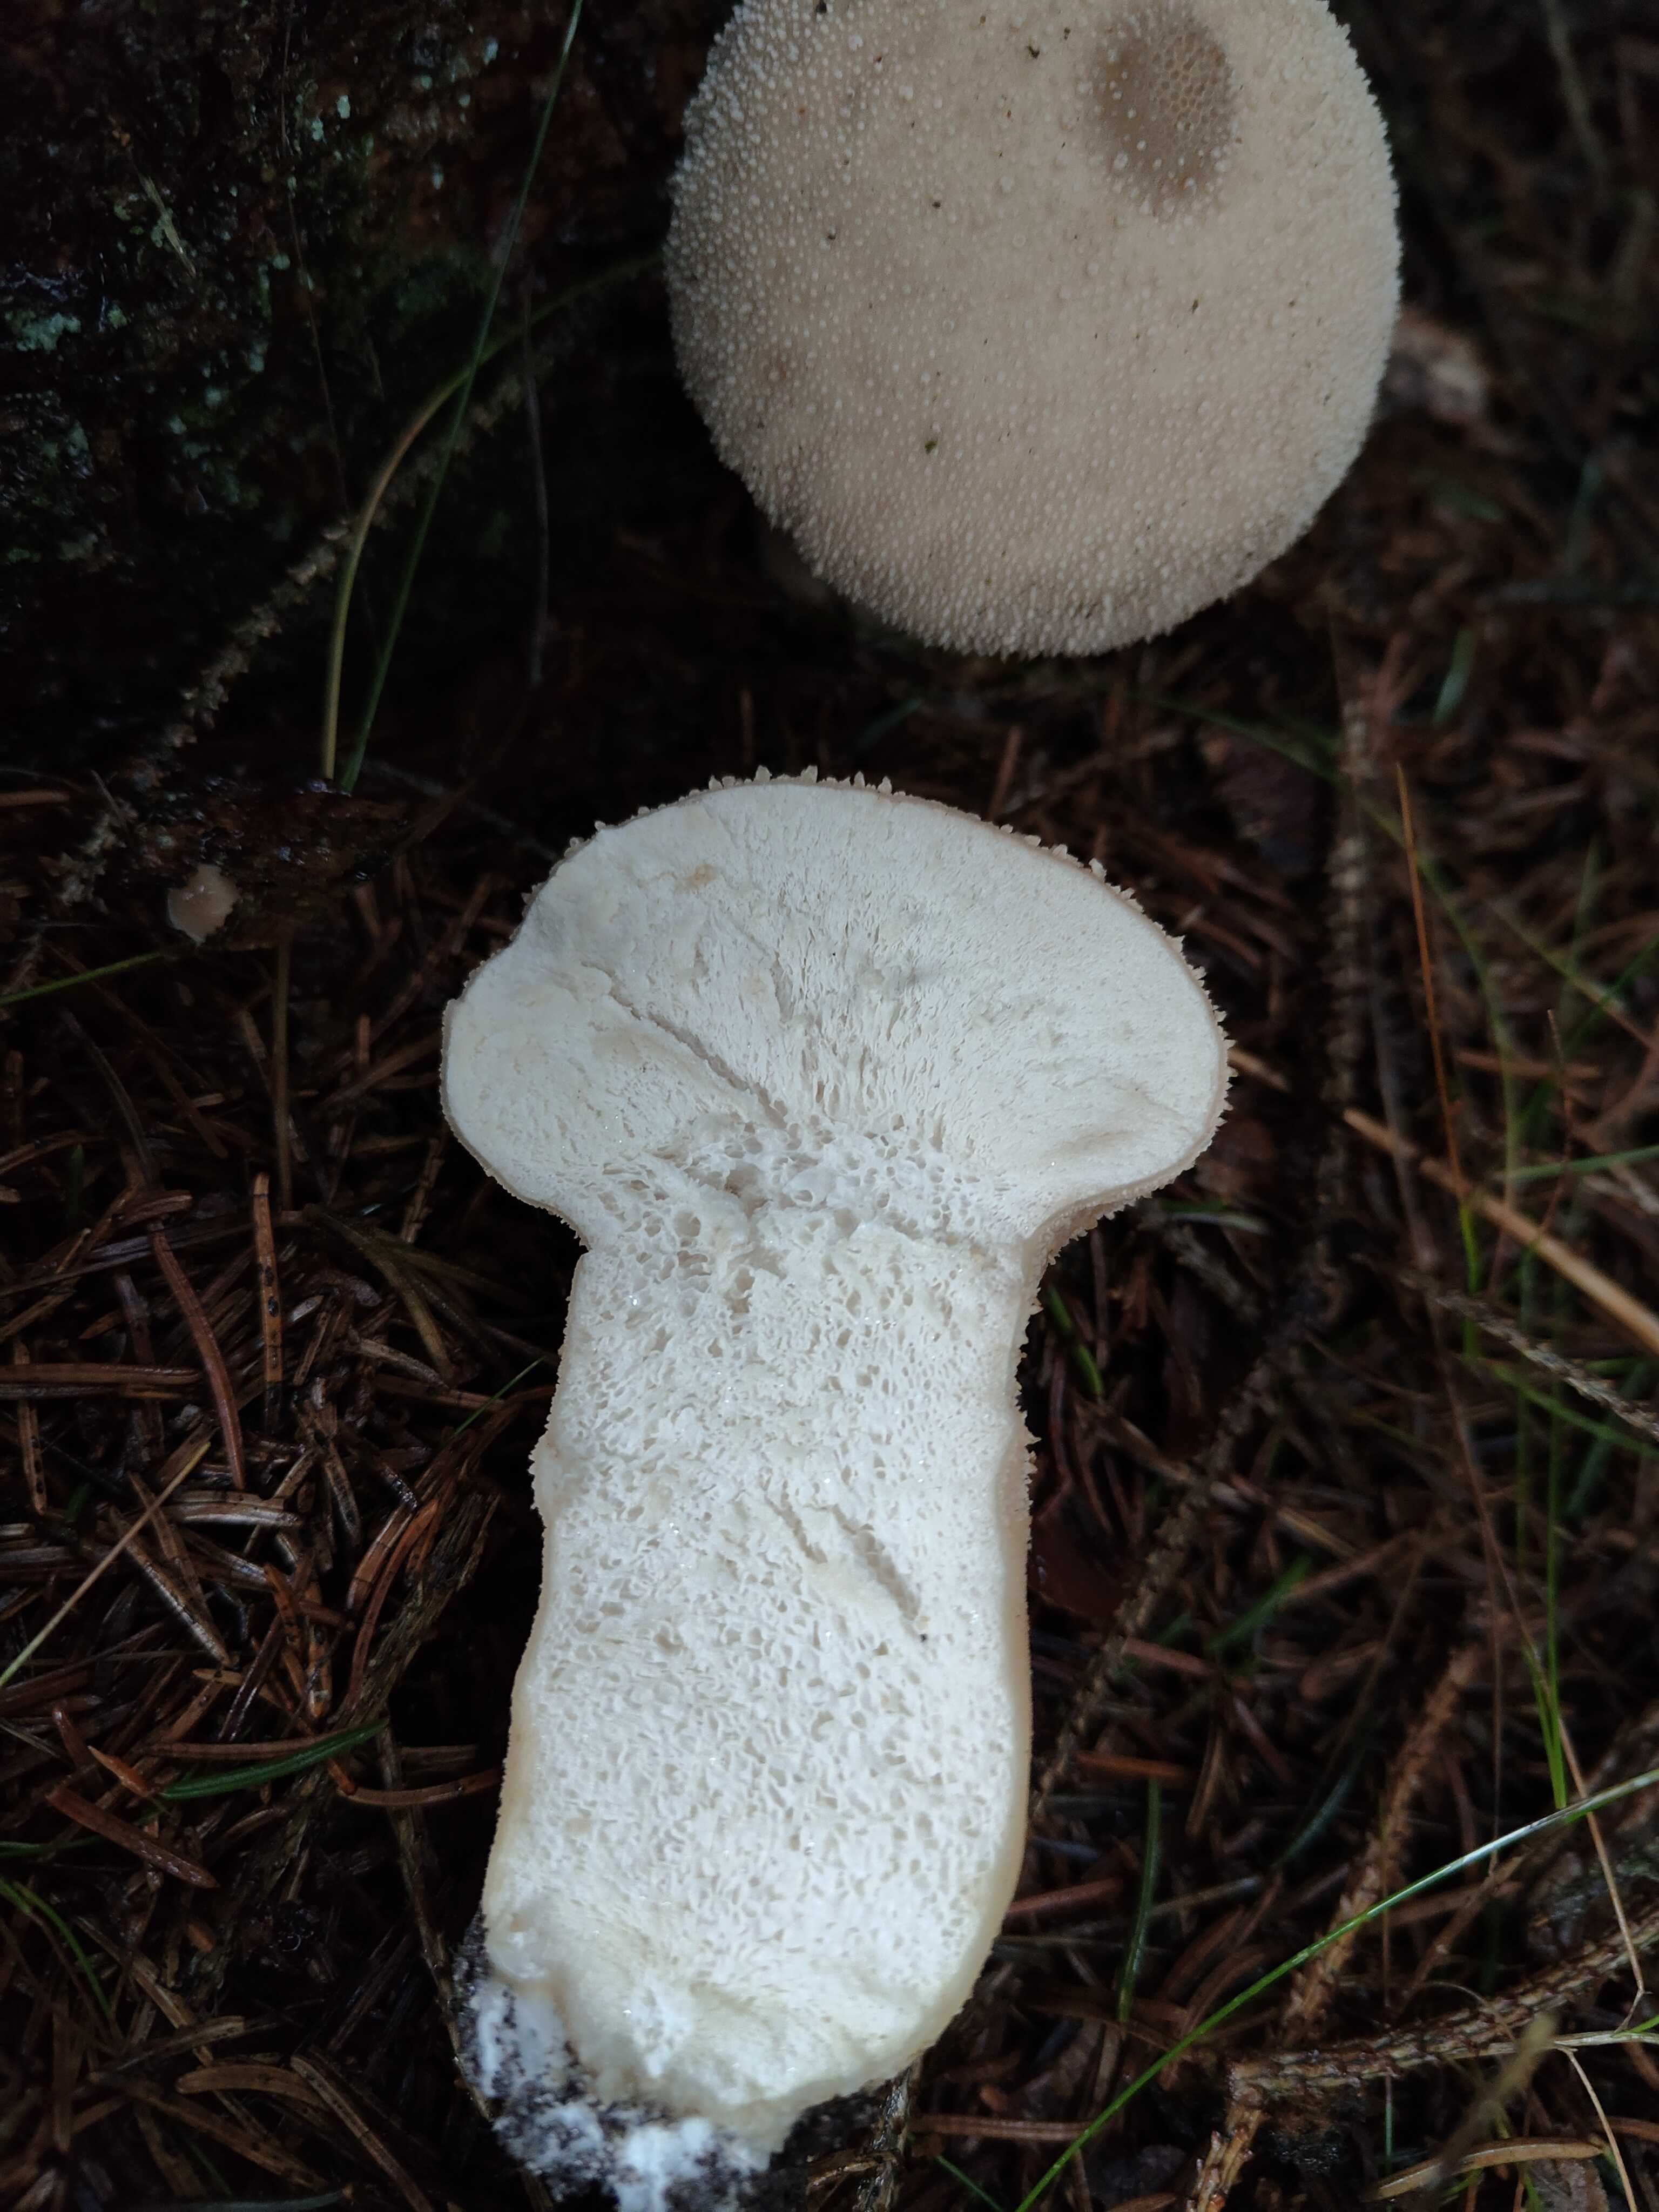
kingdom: Fungi
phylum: Basidiomycota
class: Agaricomycetes
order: Agaricales
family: Lycoperdaceae
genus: Lycoperdon
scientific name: Lycoperdon perlatum
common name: krystal-støvbold
